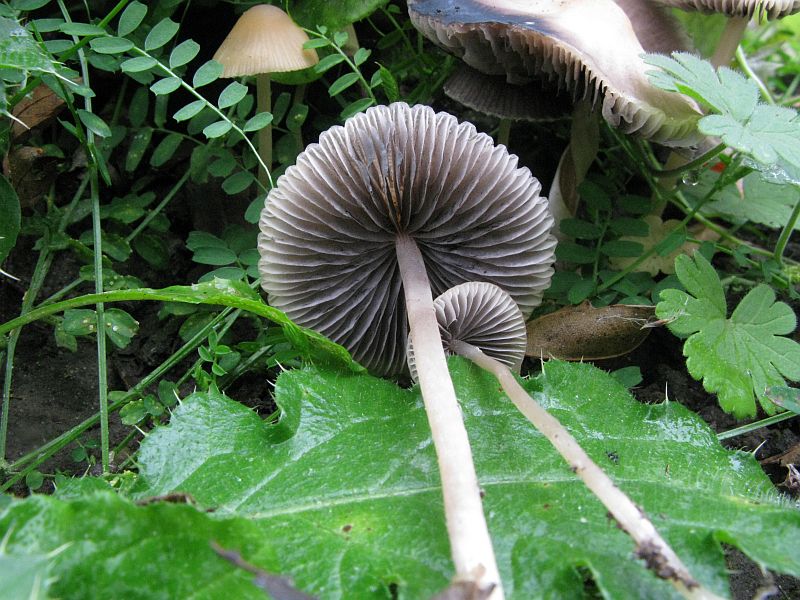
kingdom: Fungi
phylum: Basidiomycota
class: Agaricomycetes
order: Agaricales
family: Psathyrellaceae
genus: Psathyrella
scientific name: Psathyrella corrugis
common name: rødægget mørkhat
